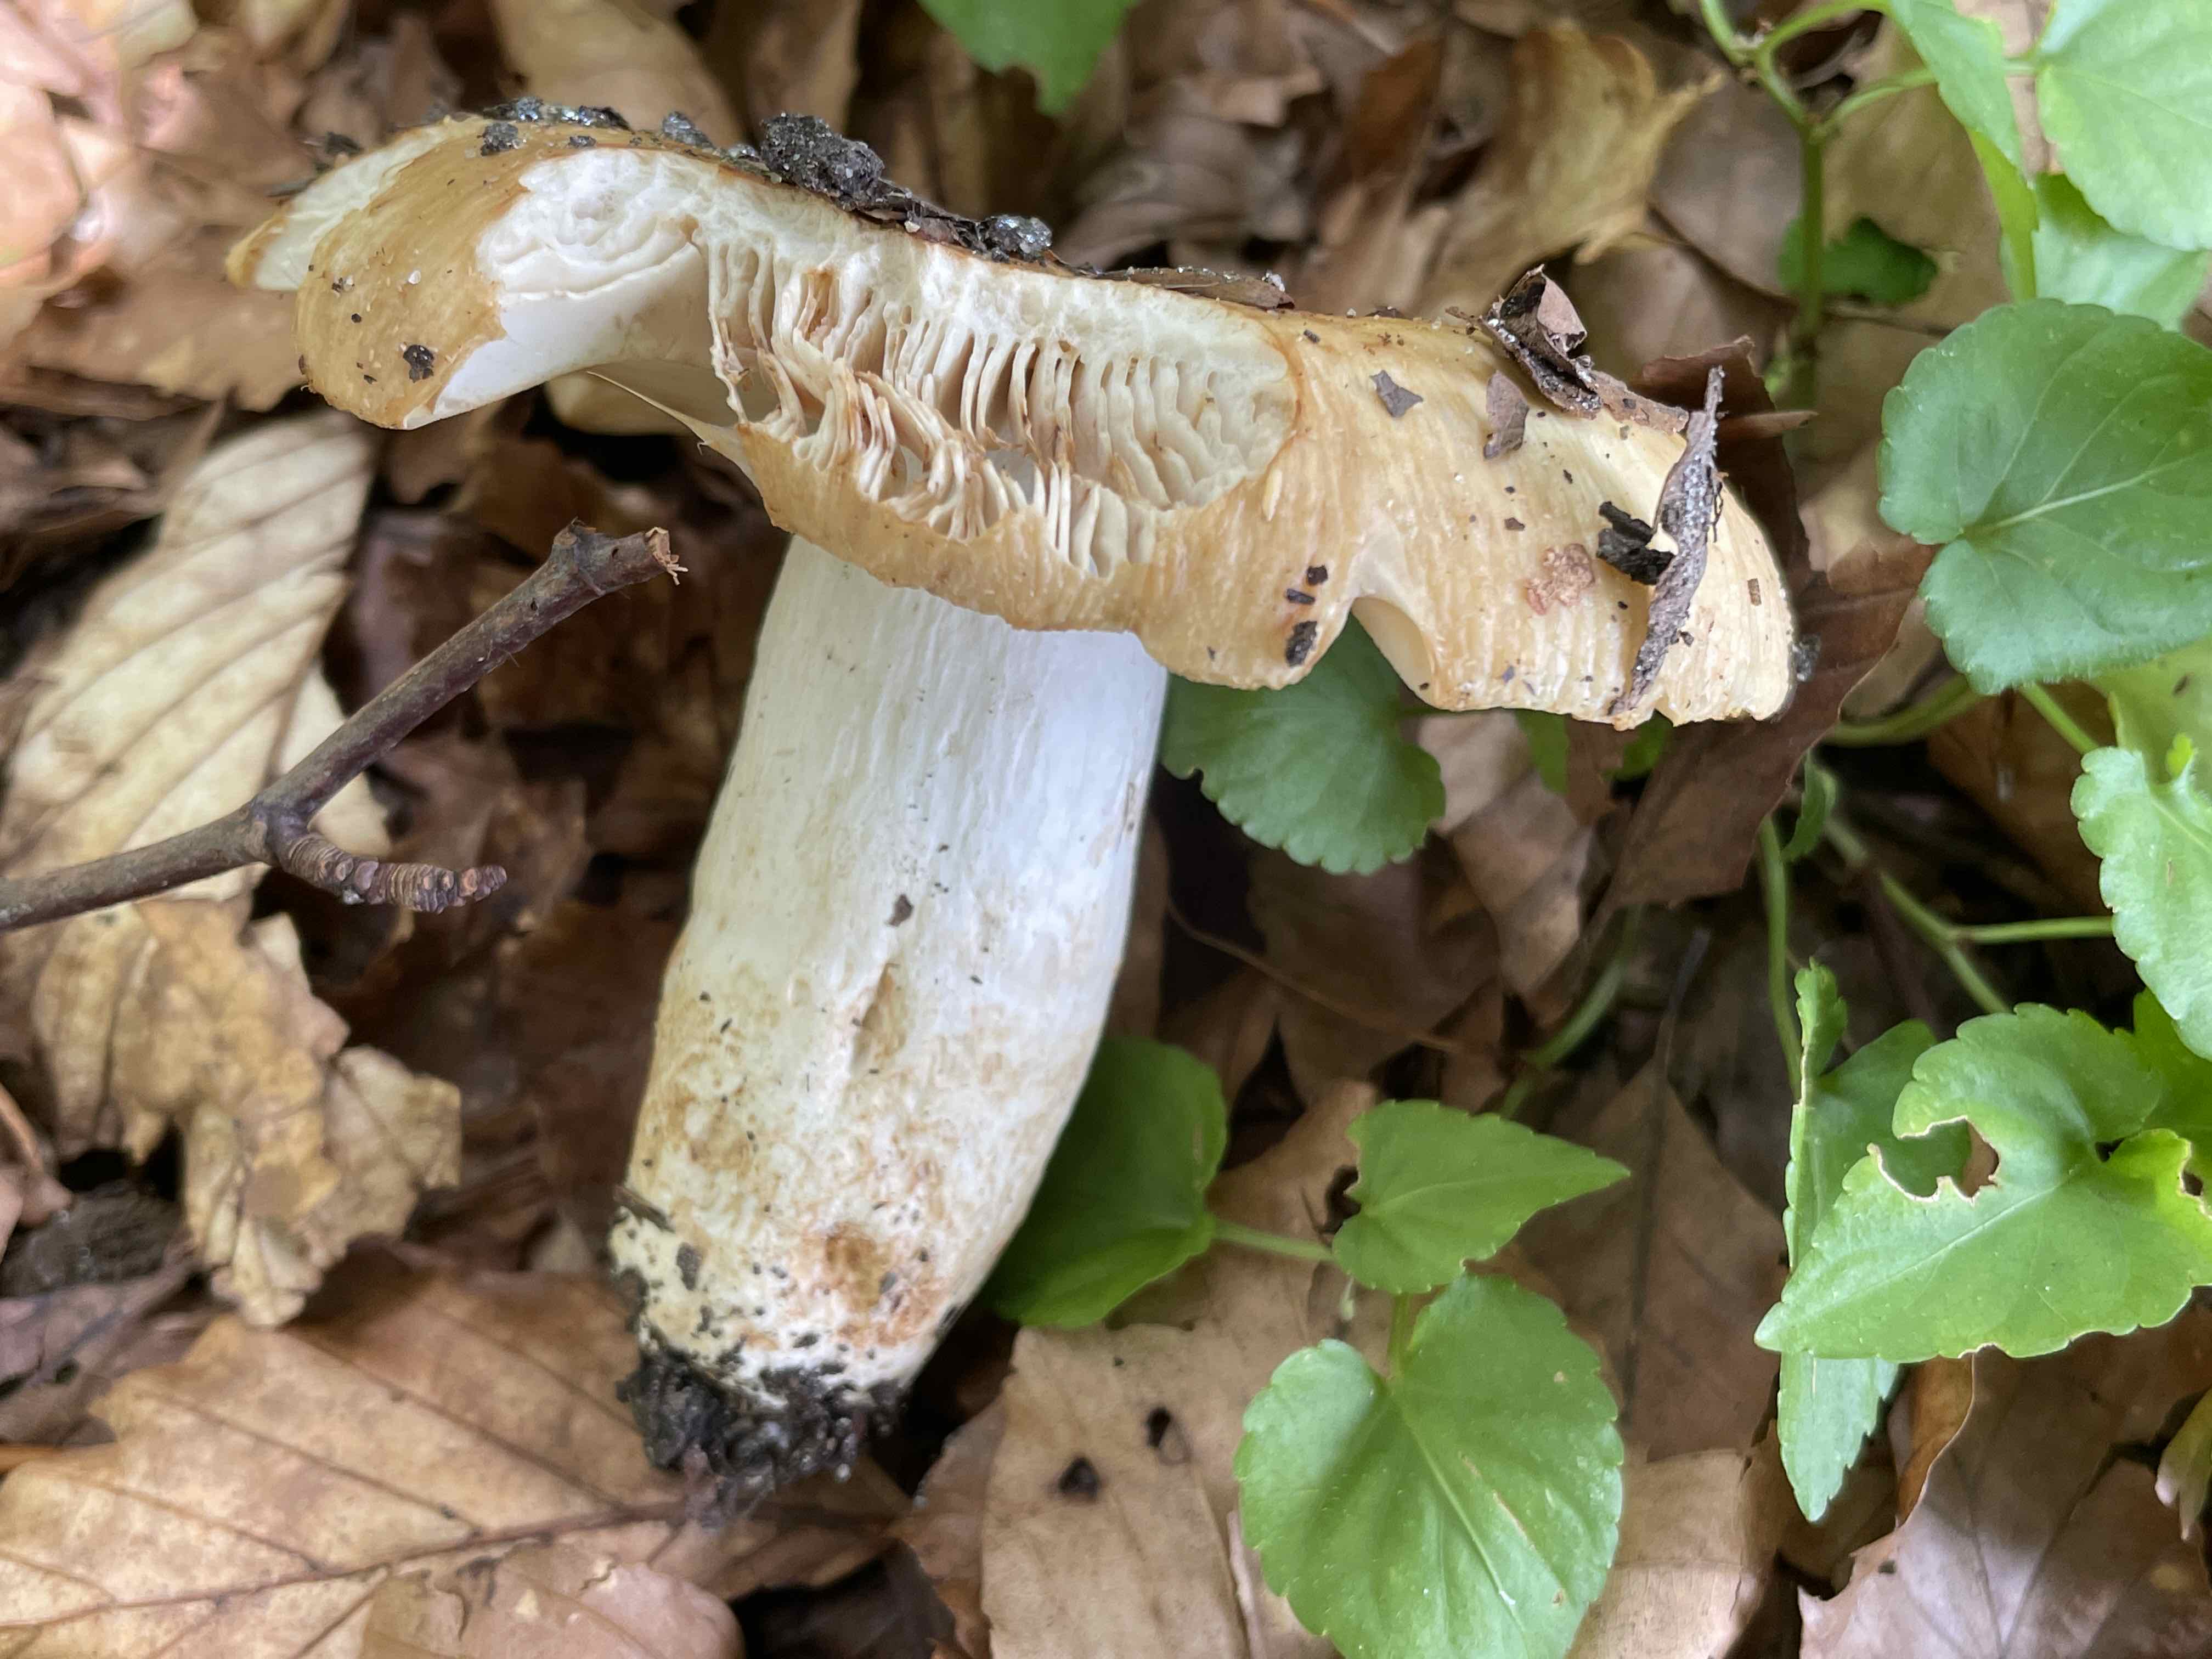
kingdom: Fungi
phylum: Basidiomycota
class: Agaricomycetes
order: Russulales
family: Russulaceae
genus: Russula
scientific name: Russula foetens
